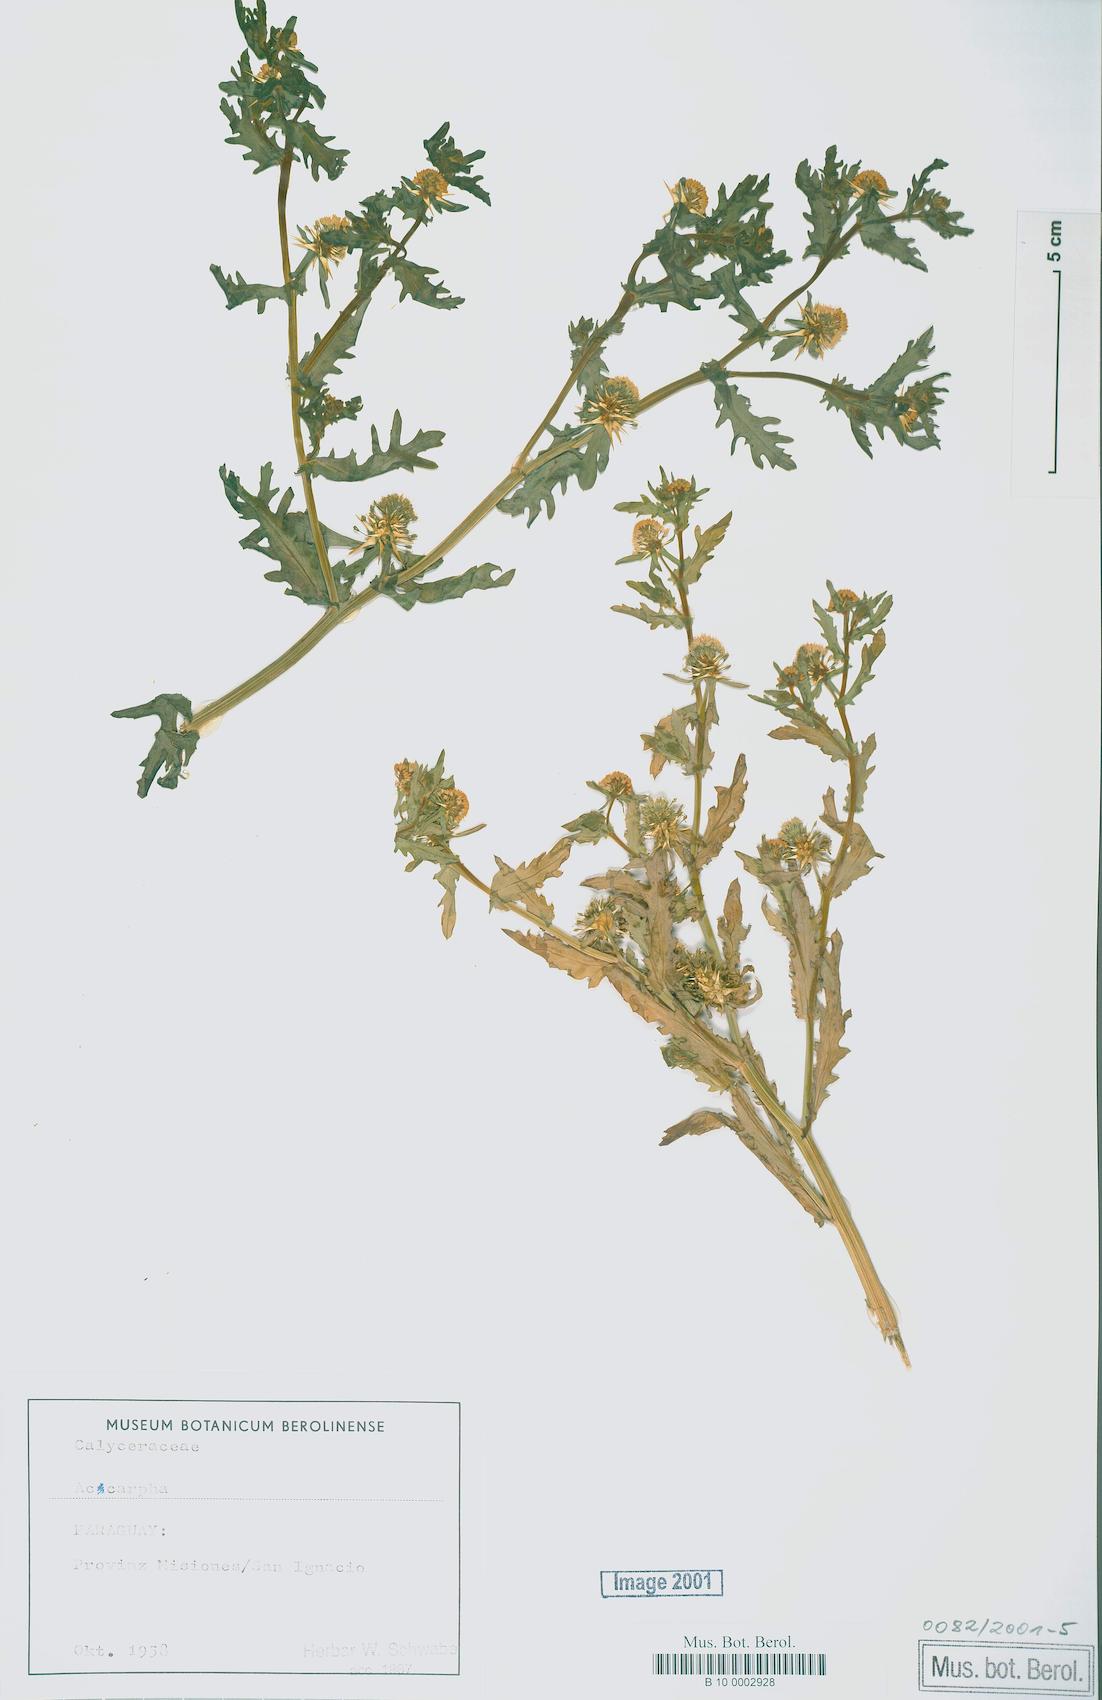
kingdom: Plantae
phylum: Tracheophyta
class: Magnoliopsida
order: Asterales
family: Calyceraceae
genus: Acicarpha
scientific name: Acicarpha
